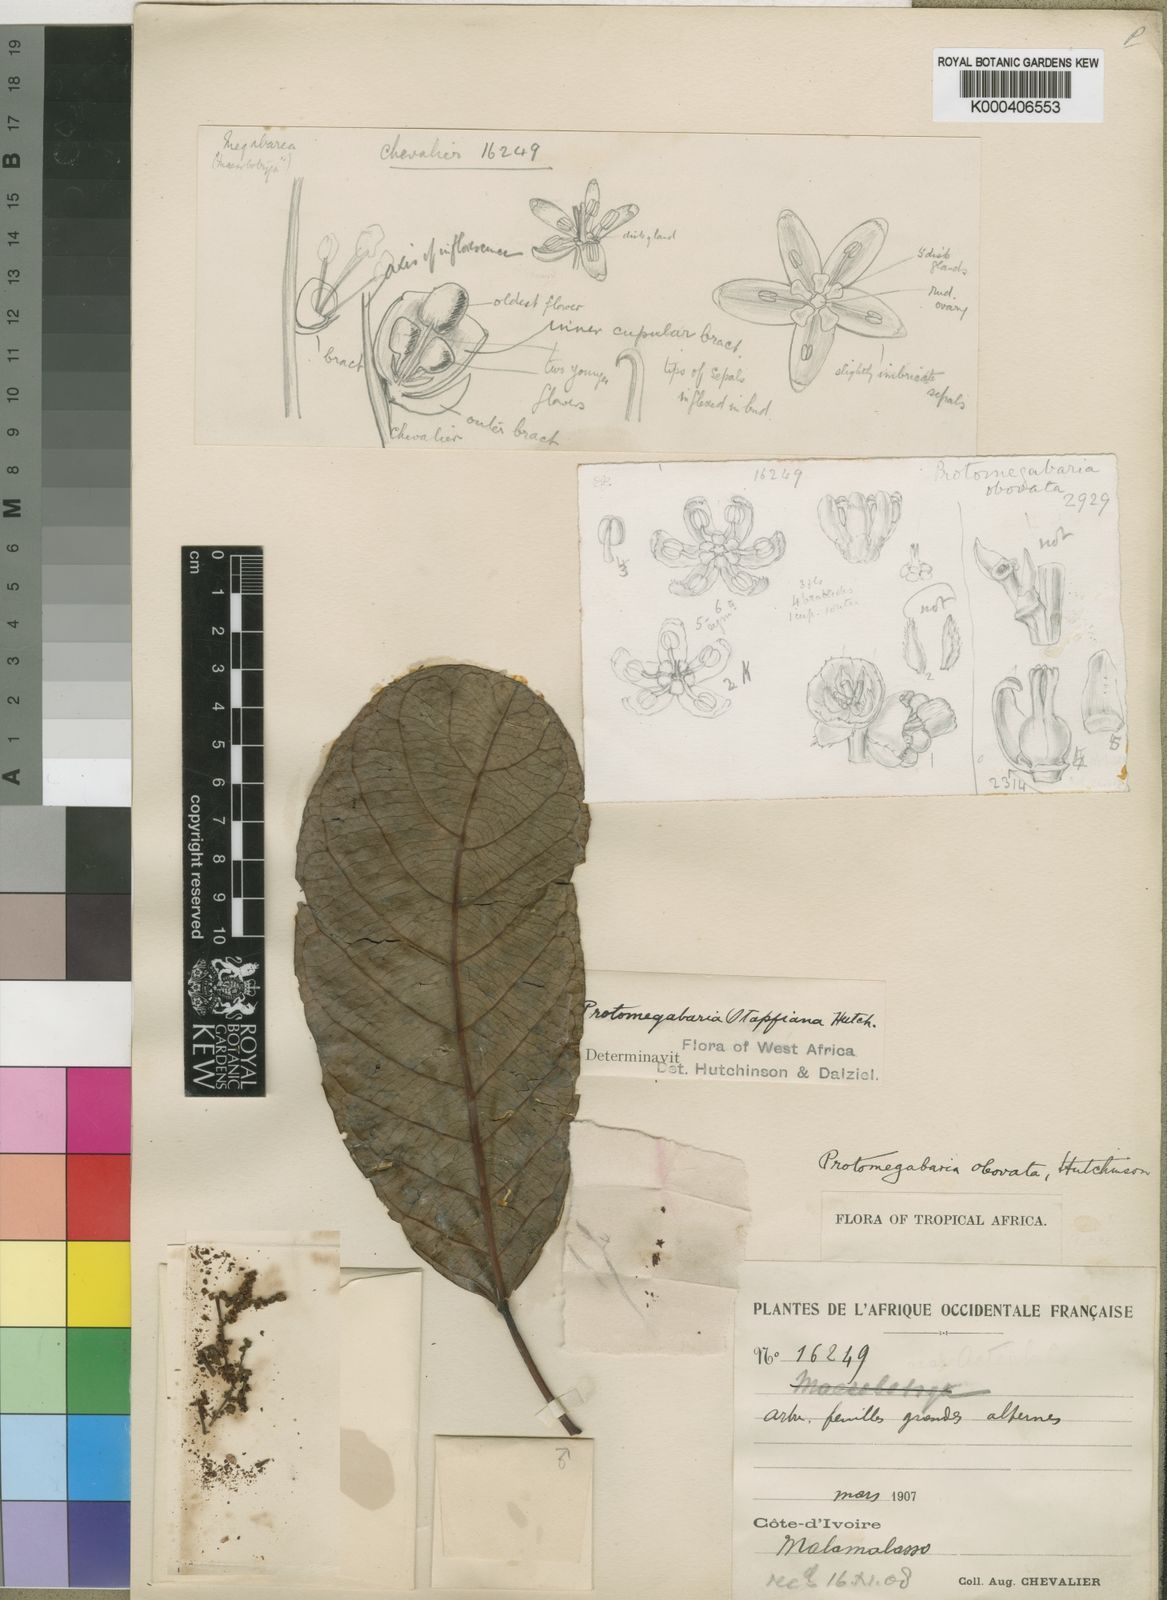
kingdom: Plantae
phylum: Tracheophyta
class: Magnoliopsida
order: Malpighiales
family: Phyllanthaceae
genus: Protomegabaria
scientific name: Protomegabaria stapfiana
